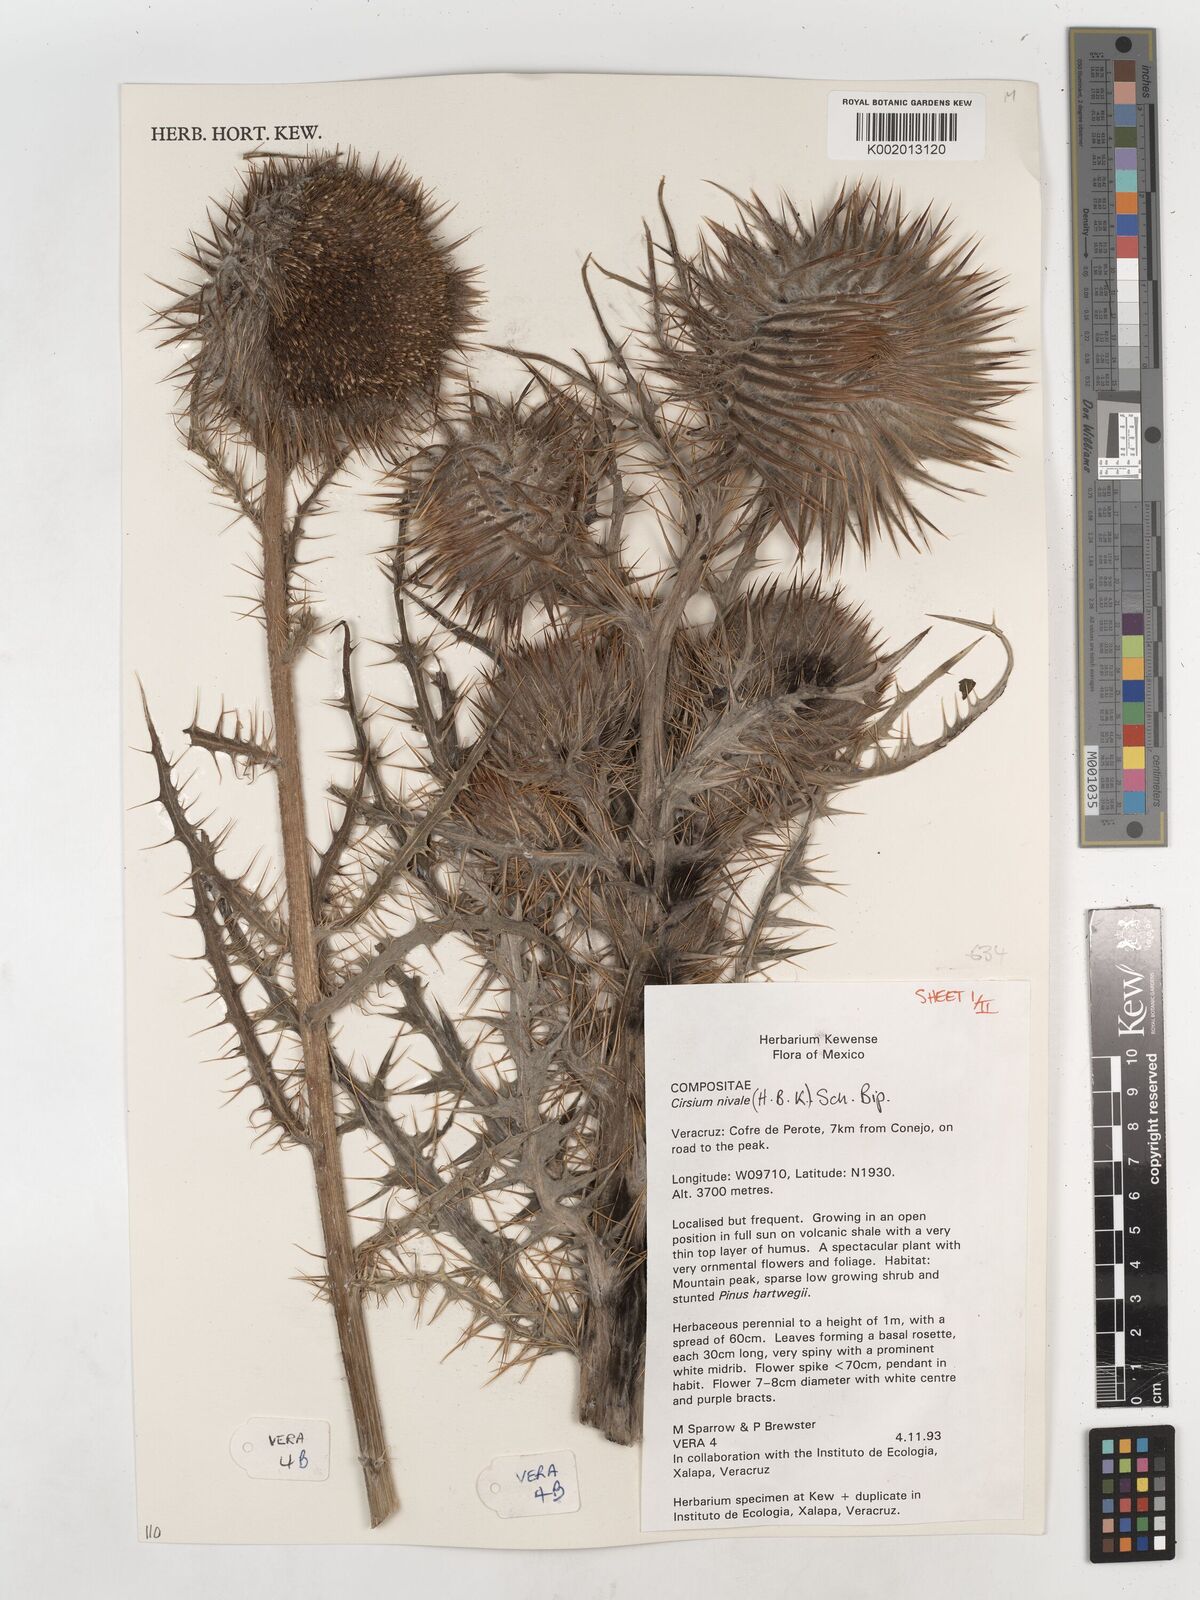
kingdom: Plantae
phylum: Tracheophyta
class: Magnoliopsida
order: Asterales
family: Asteraceae
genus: Cirsium
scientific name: Cirsium nivale
